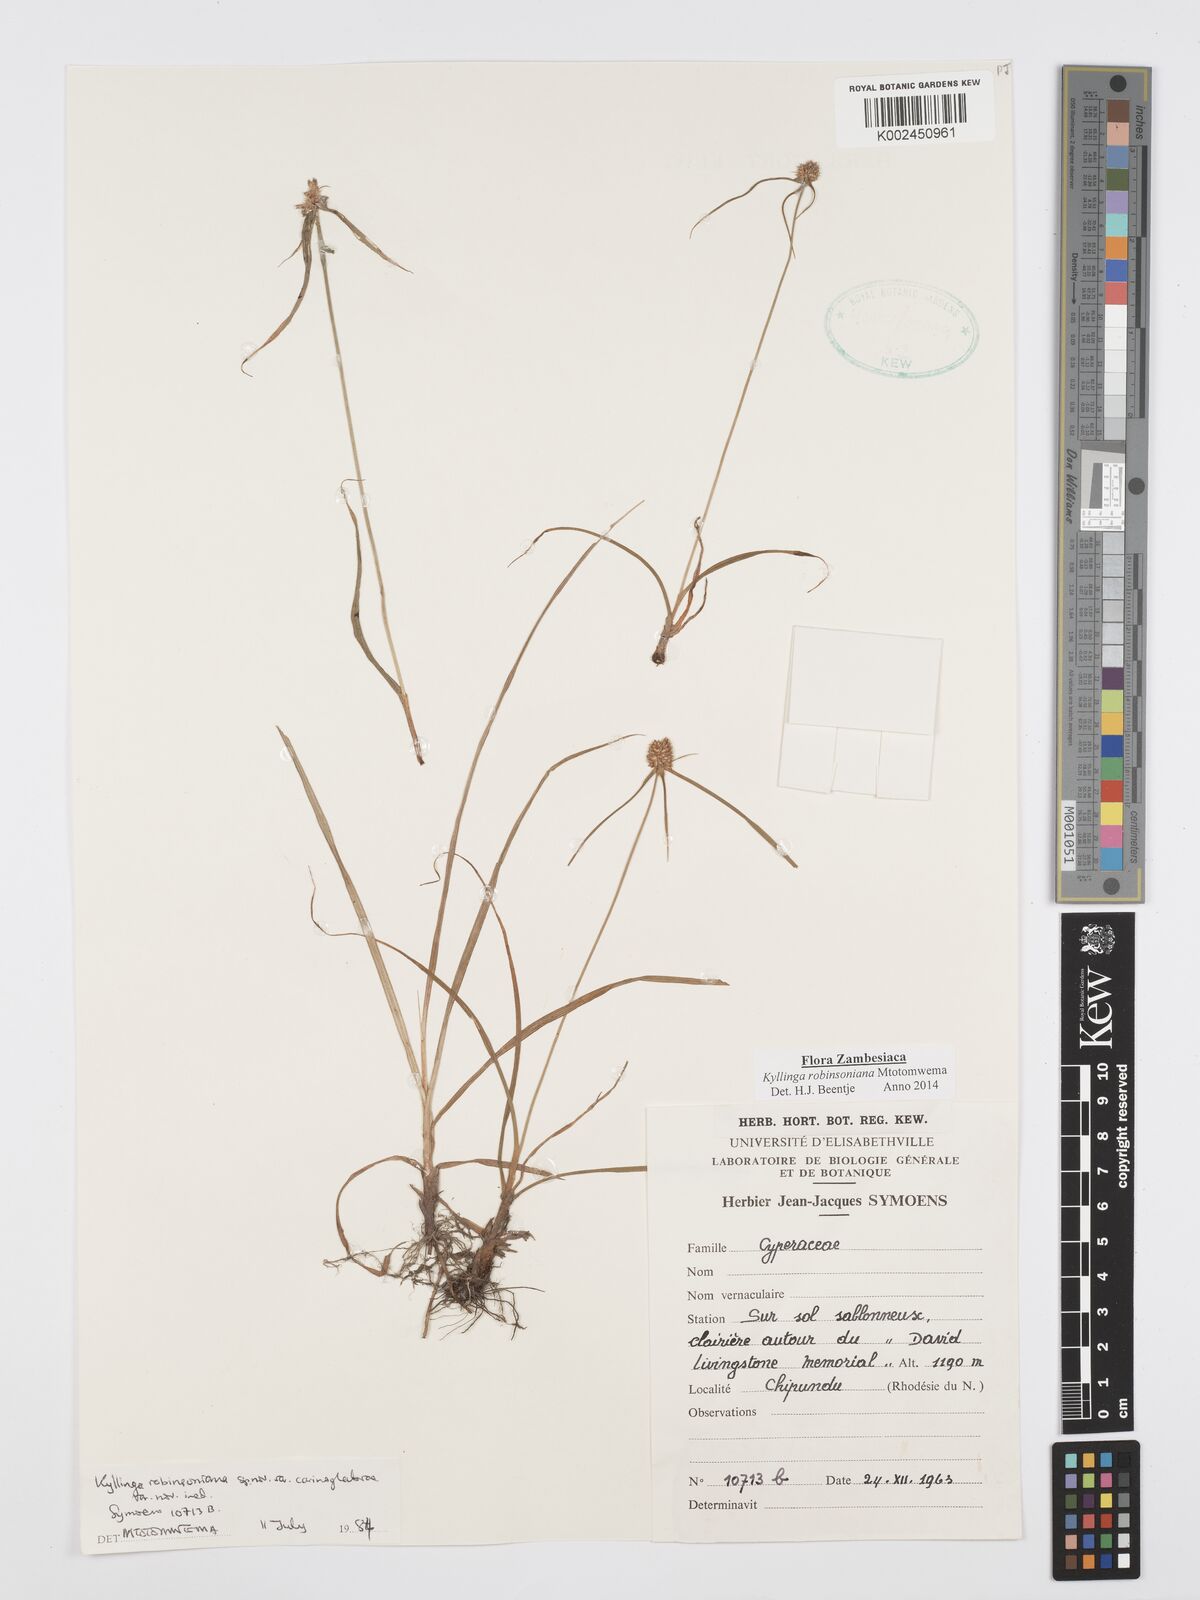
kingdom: Plantae
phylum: Tracheophyta
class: Liliopsida
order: Poales
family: Cyperaceae
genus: Cyperus
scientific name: Cyperus robinsonianus
